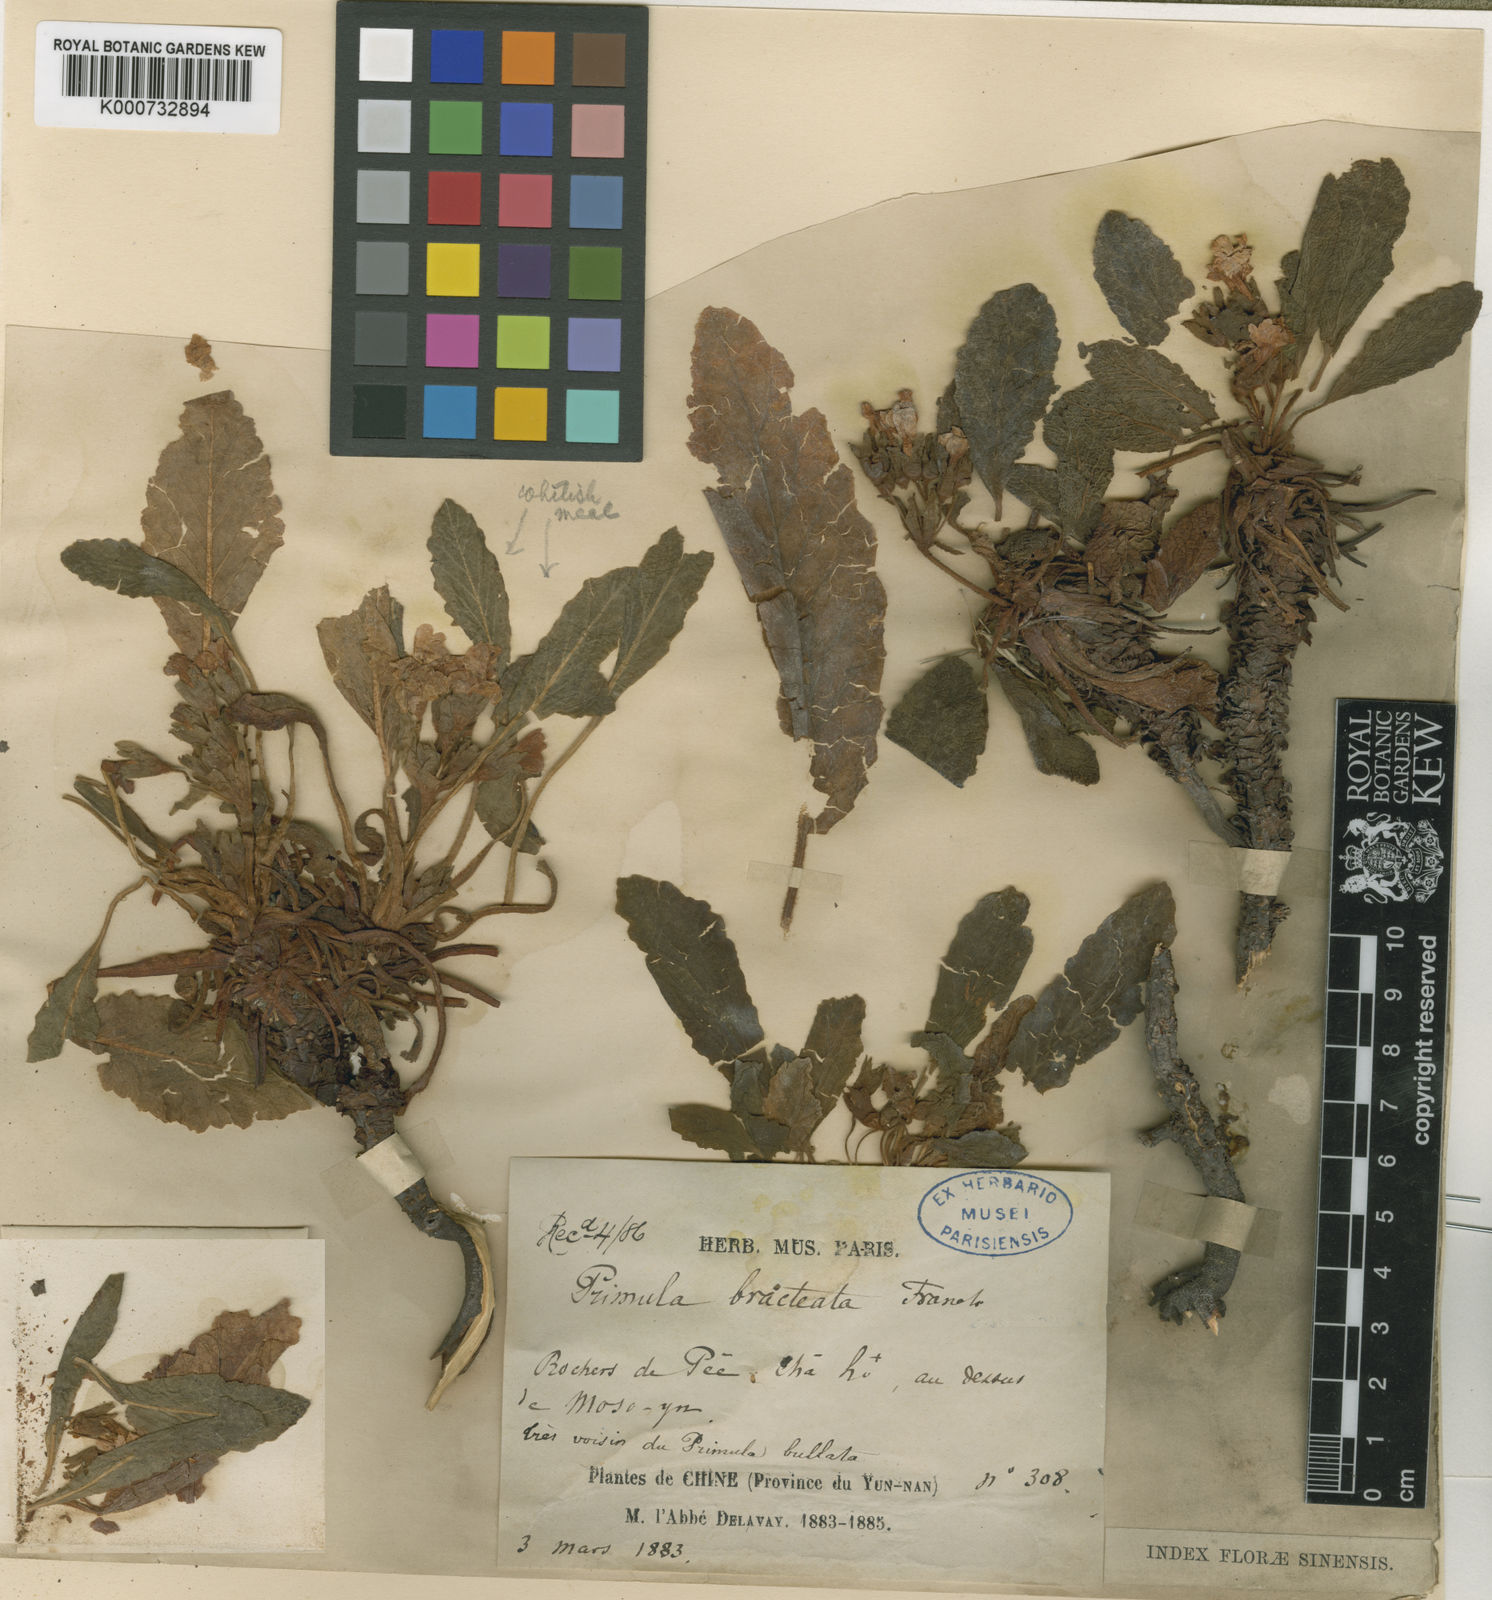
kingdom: Plantae
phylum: Tracheophyta
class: Magnoliopsida
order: Ericales
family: Primulaceae
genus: Primula
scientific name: Primula bullata
